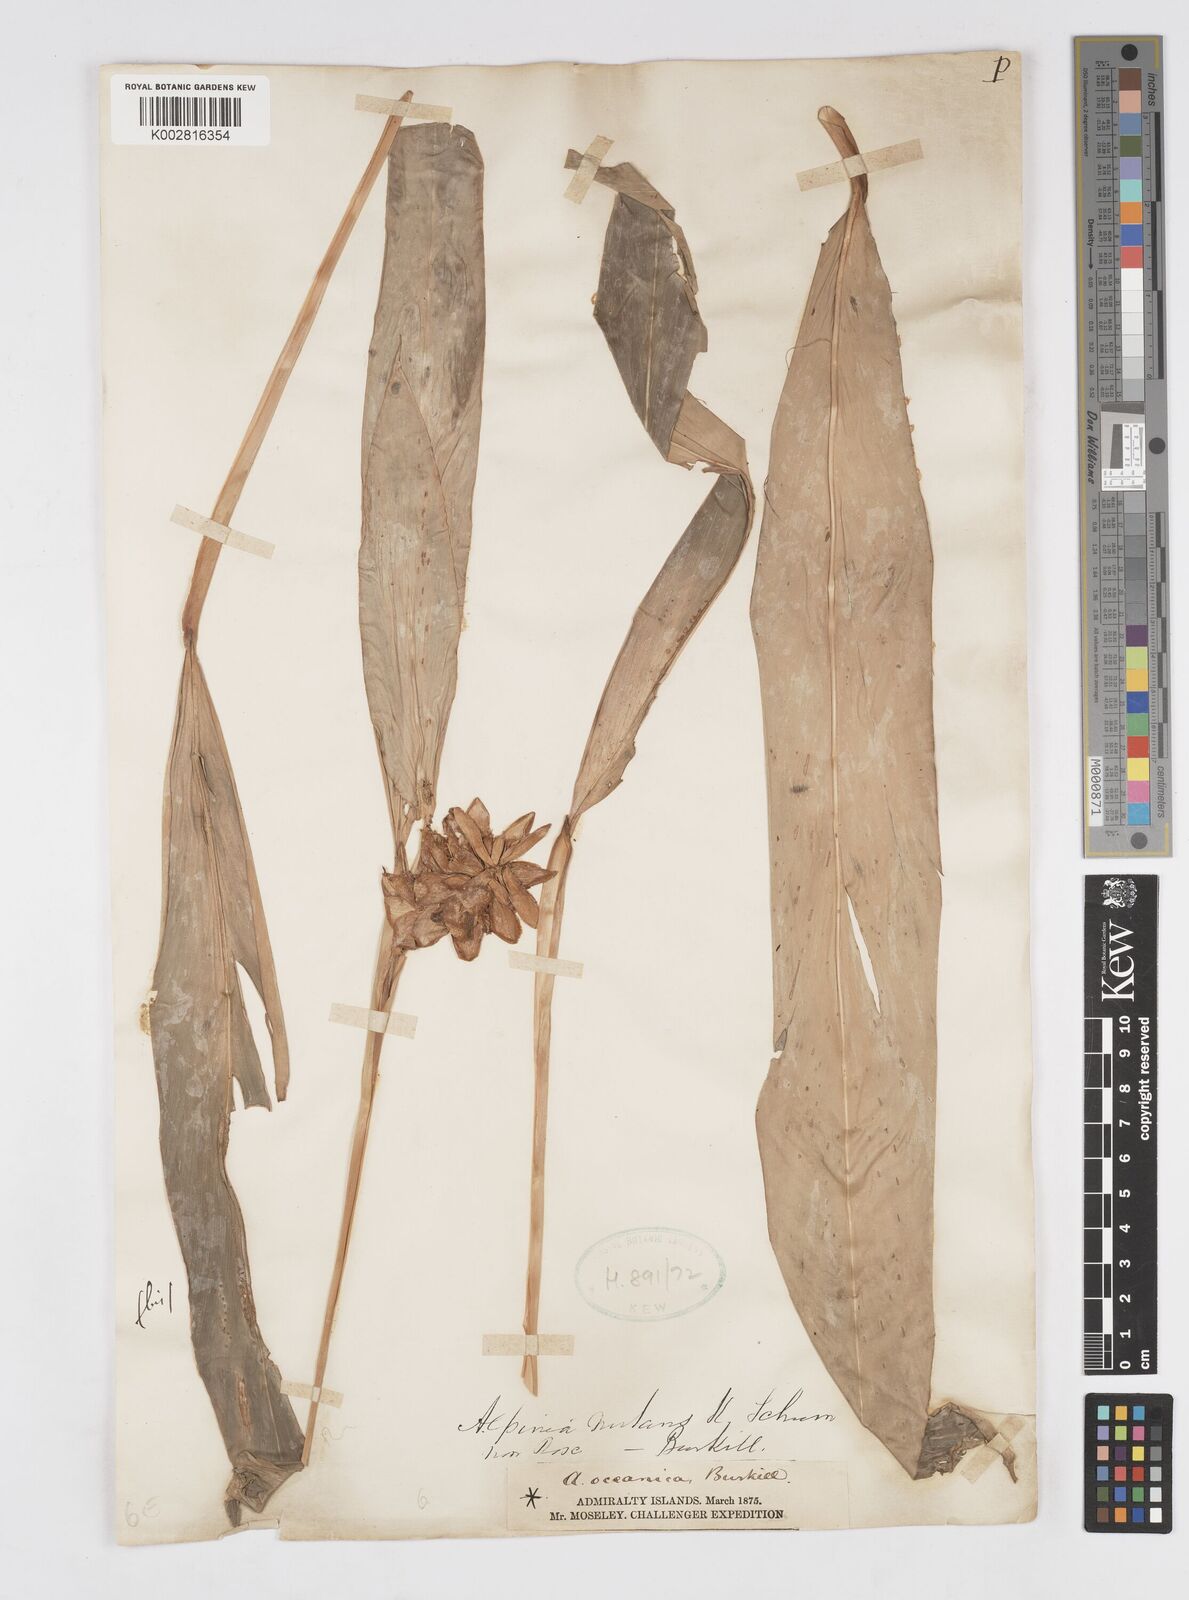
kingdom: Plantae
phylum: Tracheophyta
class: Liliopsida
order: Zingiberales
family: Zingiberaceae
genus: Alpinia
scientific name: Alpinia oceanica
